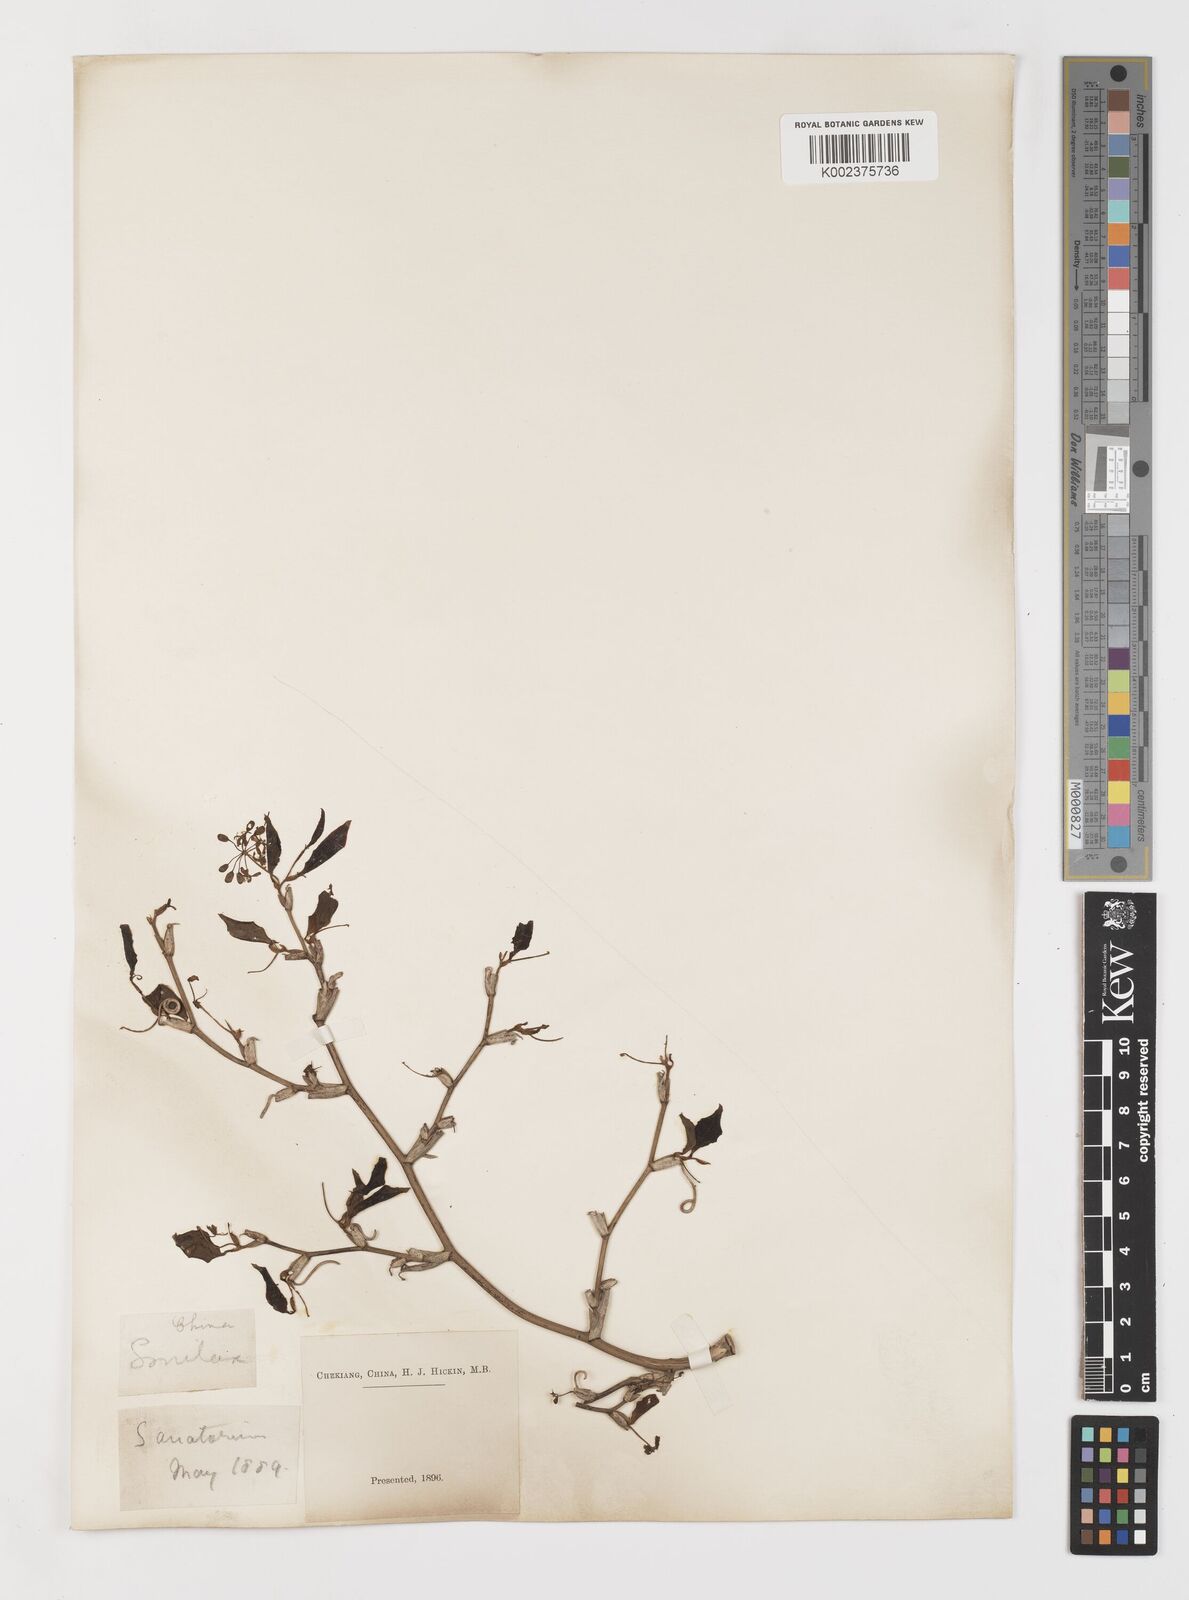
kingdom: Plantae
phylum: Tracheophyta
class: Liliopsida
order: Liliales
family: Smilacaceae
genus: Smilax
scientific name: Smilax china
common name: Chinaroot
